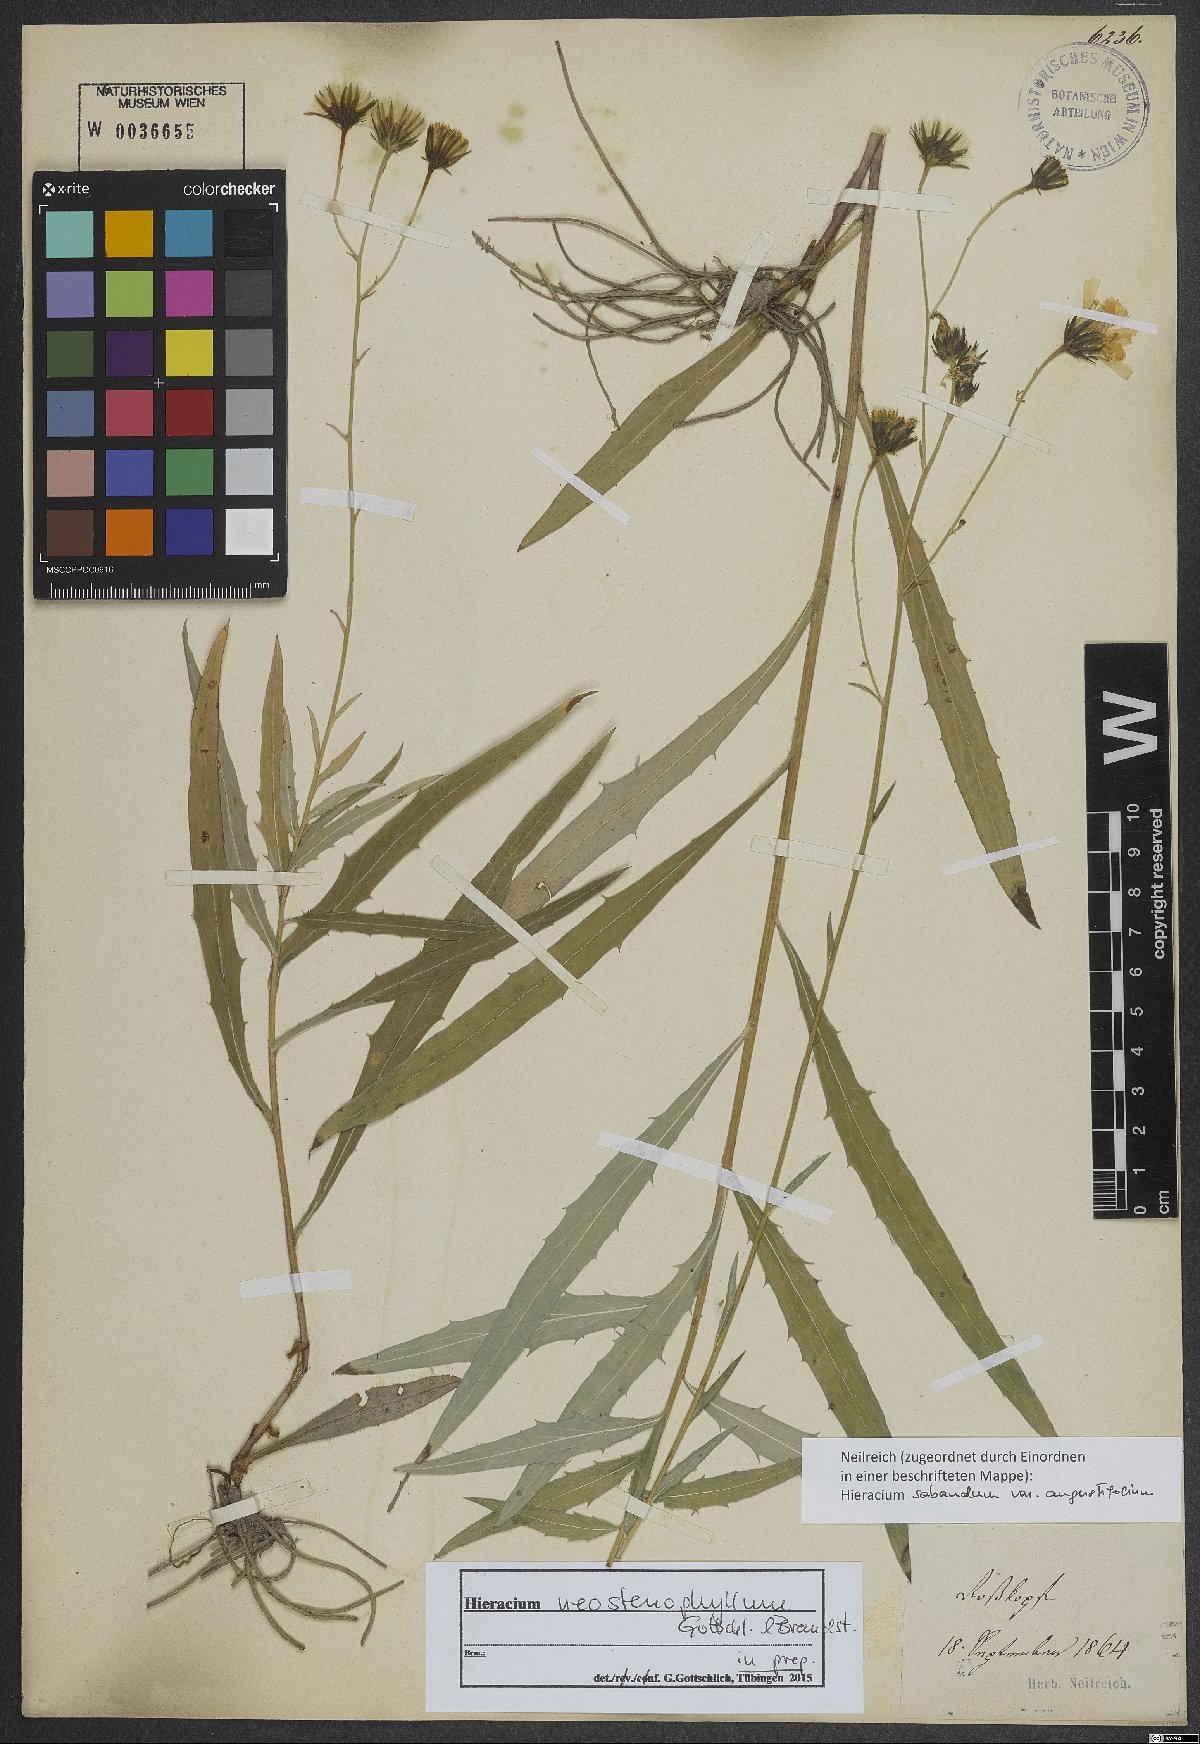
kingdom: Plantae
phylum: Tracheophyta
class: Magnoliopsida
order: Asterales
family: Asteraceae
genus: Hieracium
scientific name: Hieracium neostenophyllum
